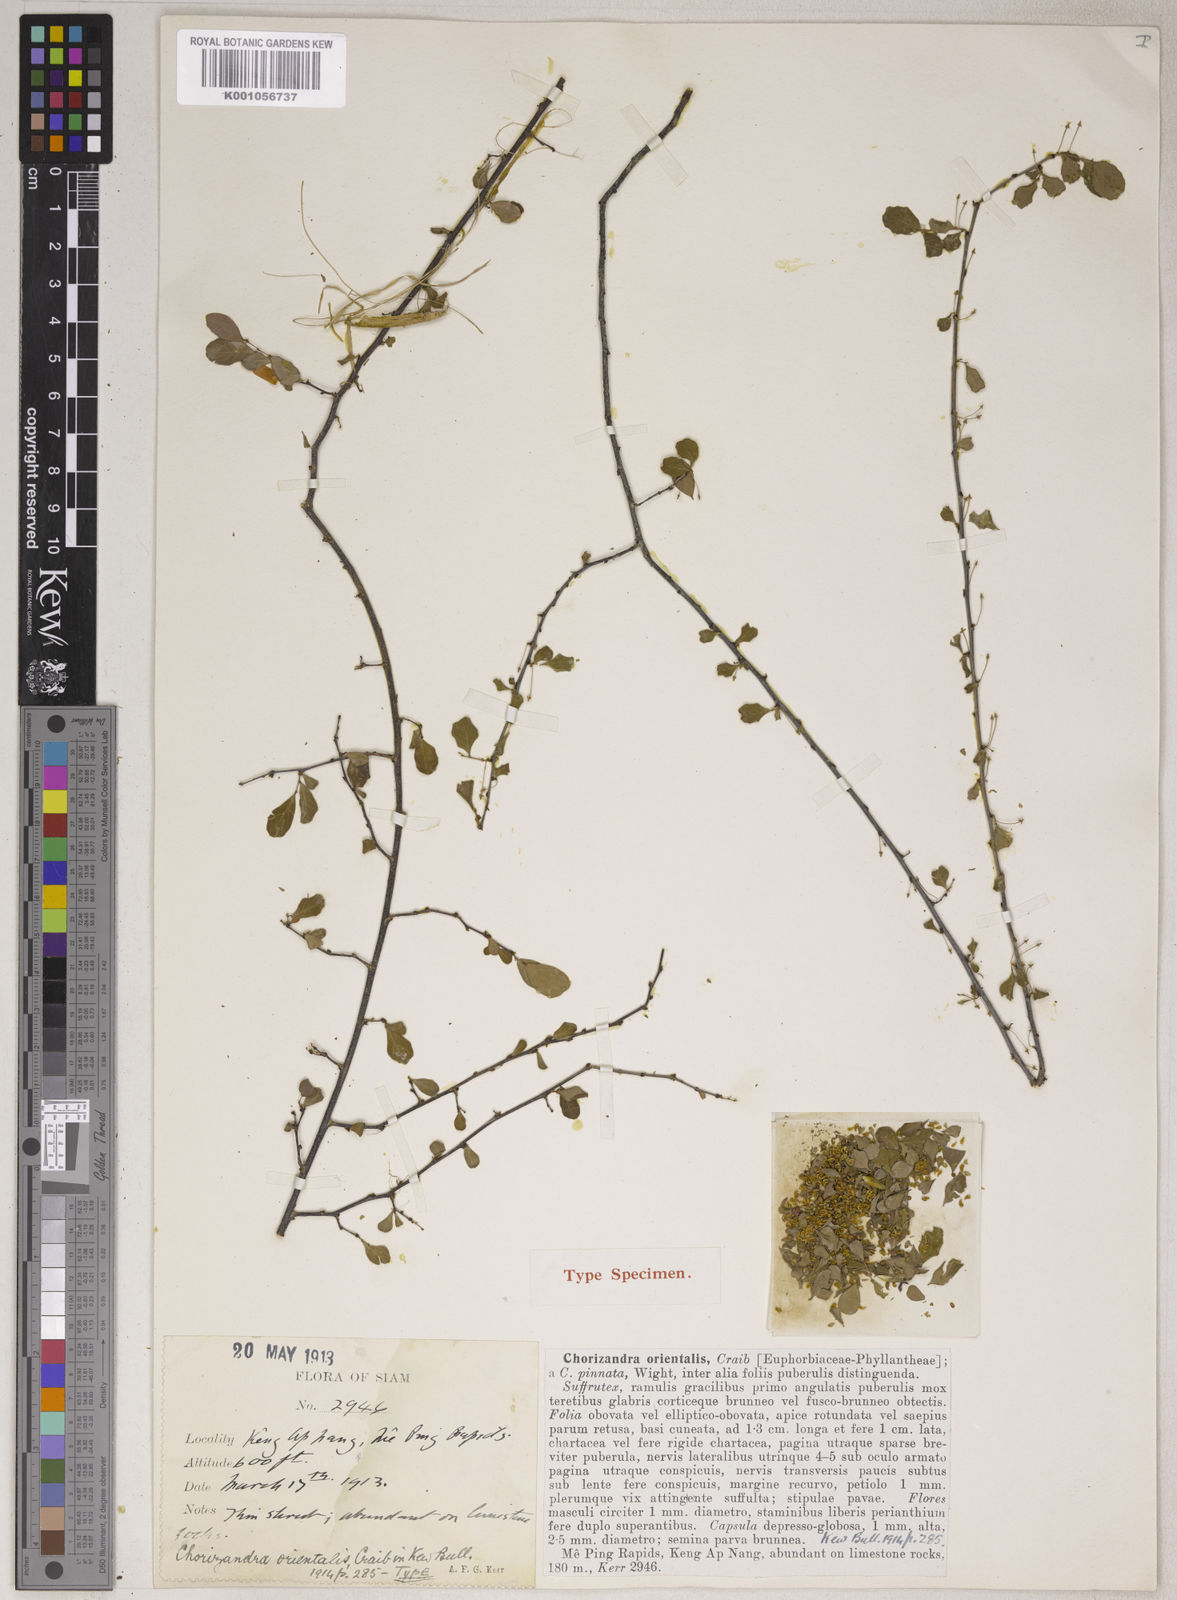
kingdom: Plantae
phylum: Tracheophyta
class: Magnoliopsida
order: Malpighiales
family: Phyllanthaceae
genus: Phyllanthus
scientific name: Phyllanthus orientalis
